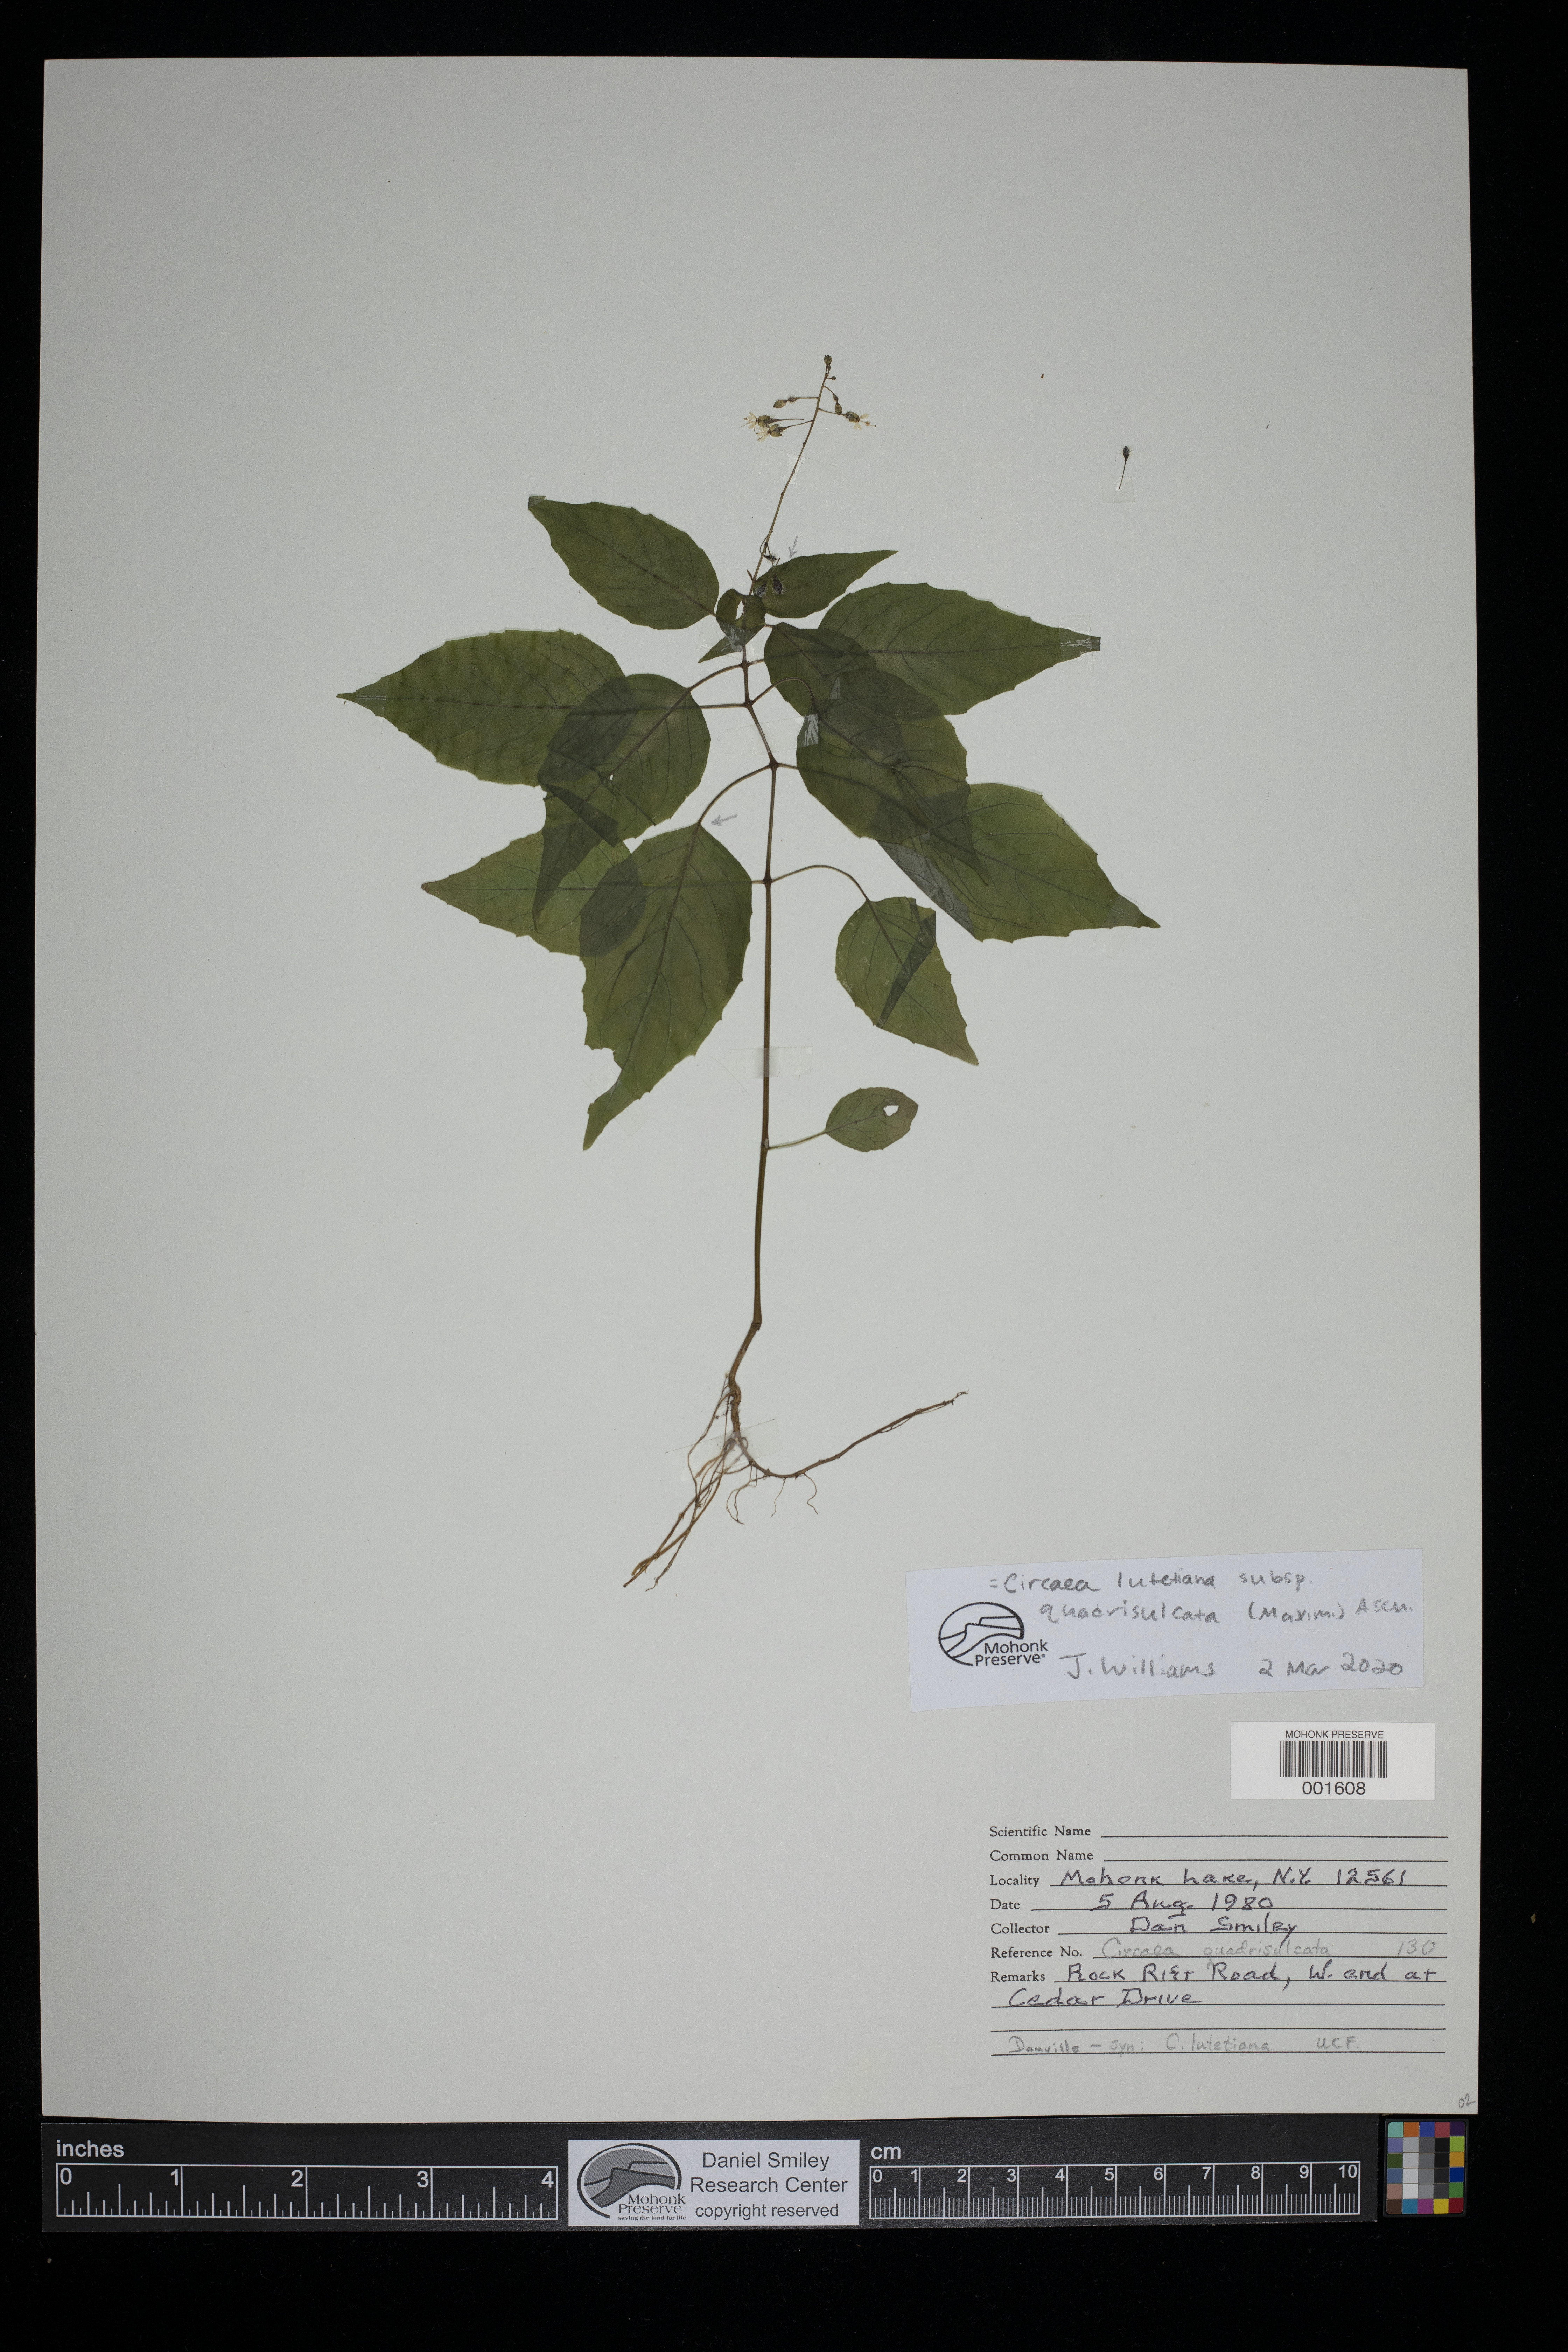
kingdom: Plantae
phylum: Tracheophyta
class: Magnoliopsida
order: Myrtales
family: Onagraceae
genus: Circaea
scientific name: Circaea canadensis
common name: Broad-leaved enchanter's nightshade
